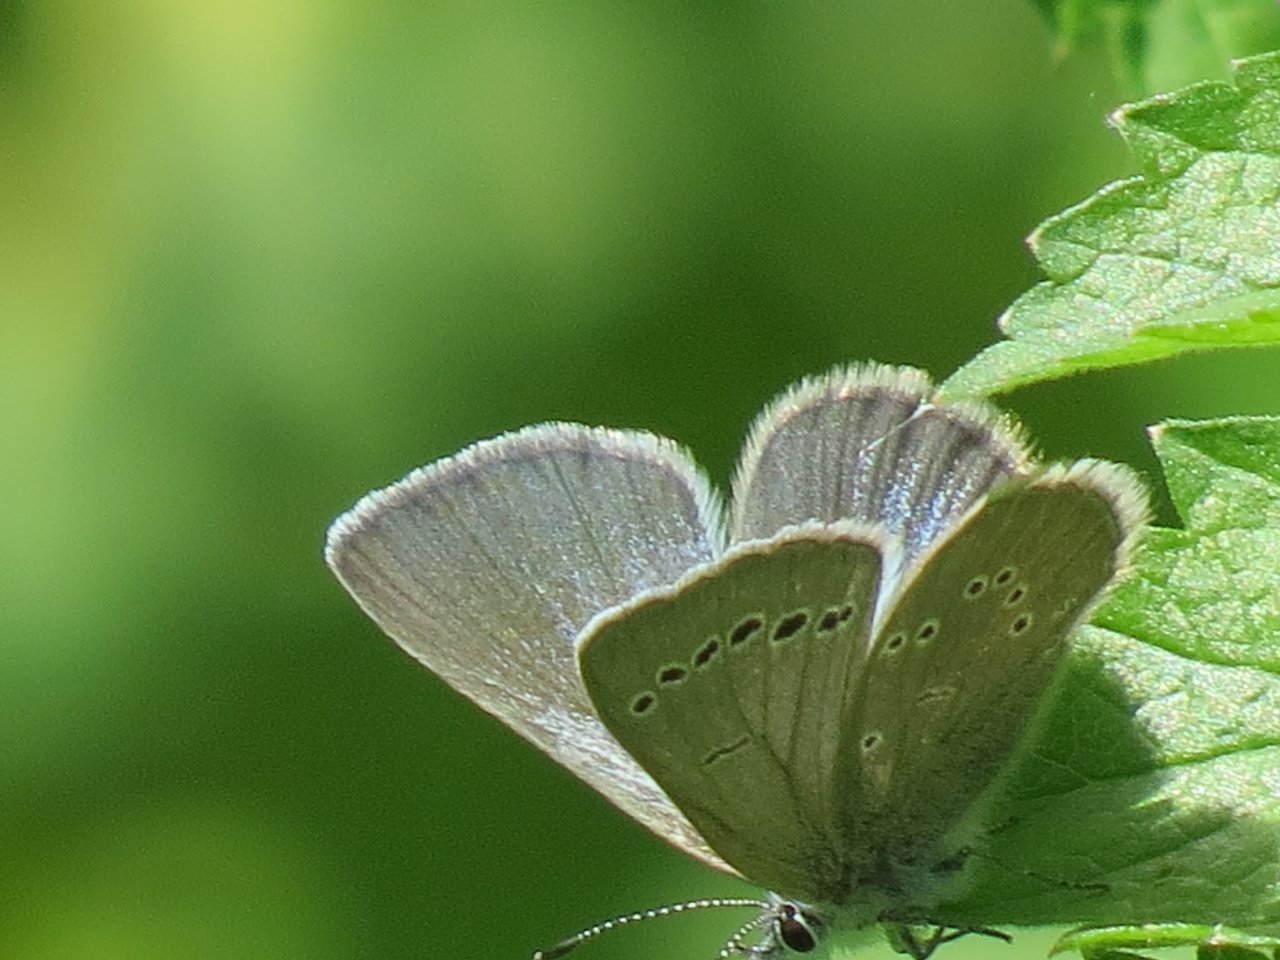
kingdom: Animalia
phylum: Arthropoda
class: Insecta
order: Lepidoptera
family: Lycaenidae
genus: Glaucopsyche
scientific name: Glaucopsyche lygdamus
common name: Silvery Blue
